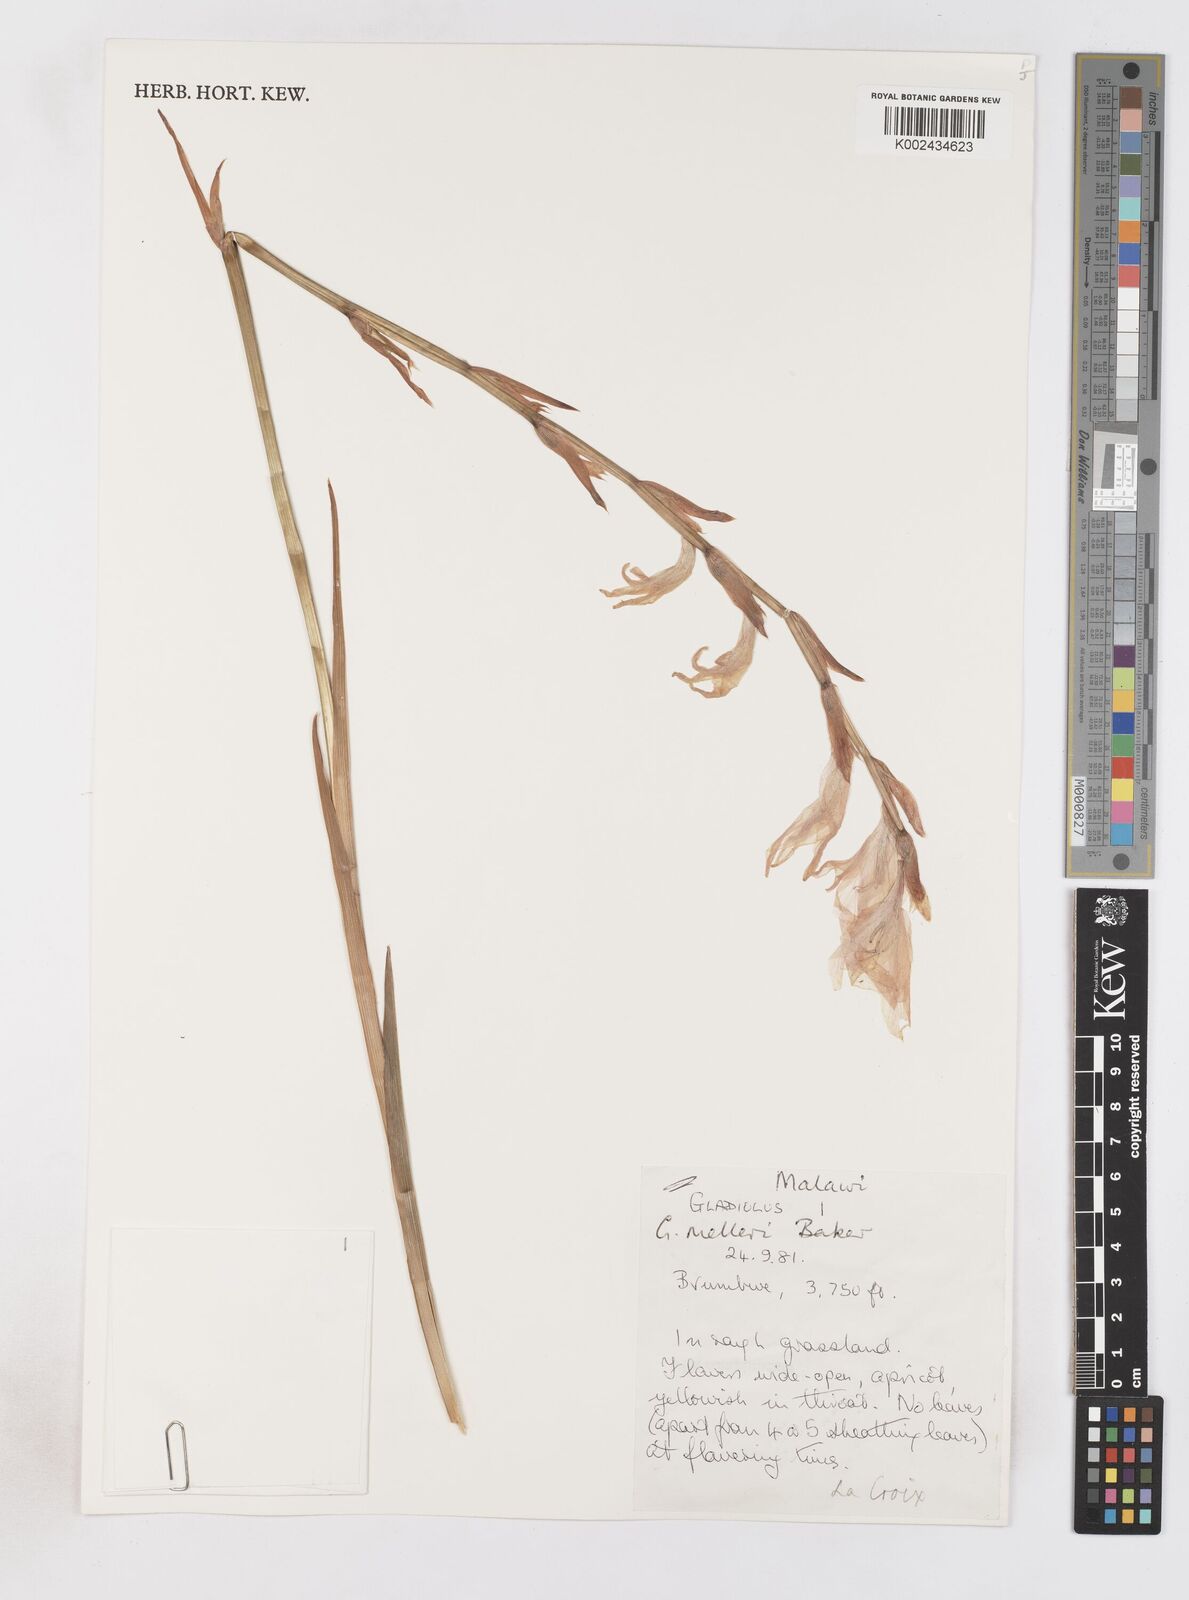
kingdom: Plantae
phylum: Tracheophyta
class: Liliopsida
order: Asparagales
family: Iridaceae
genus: Gladiolus
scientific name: Gladiolus melleri
